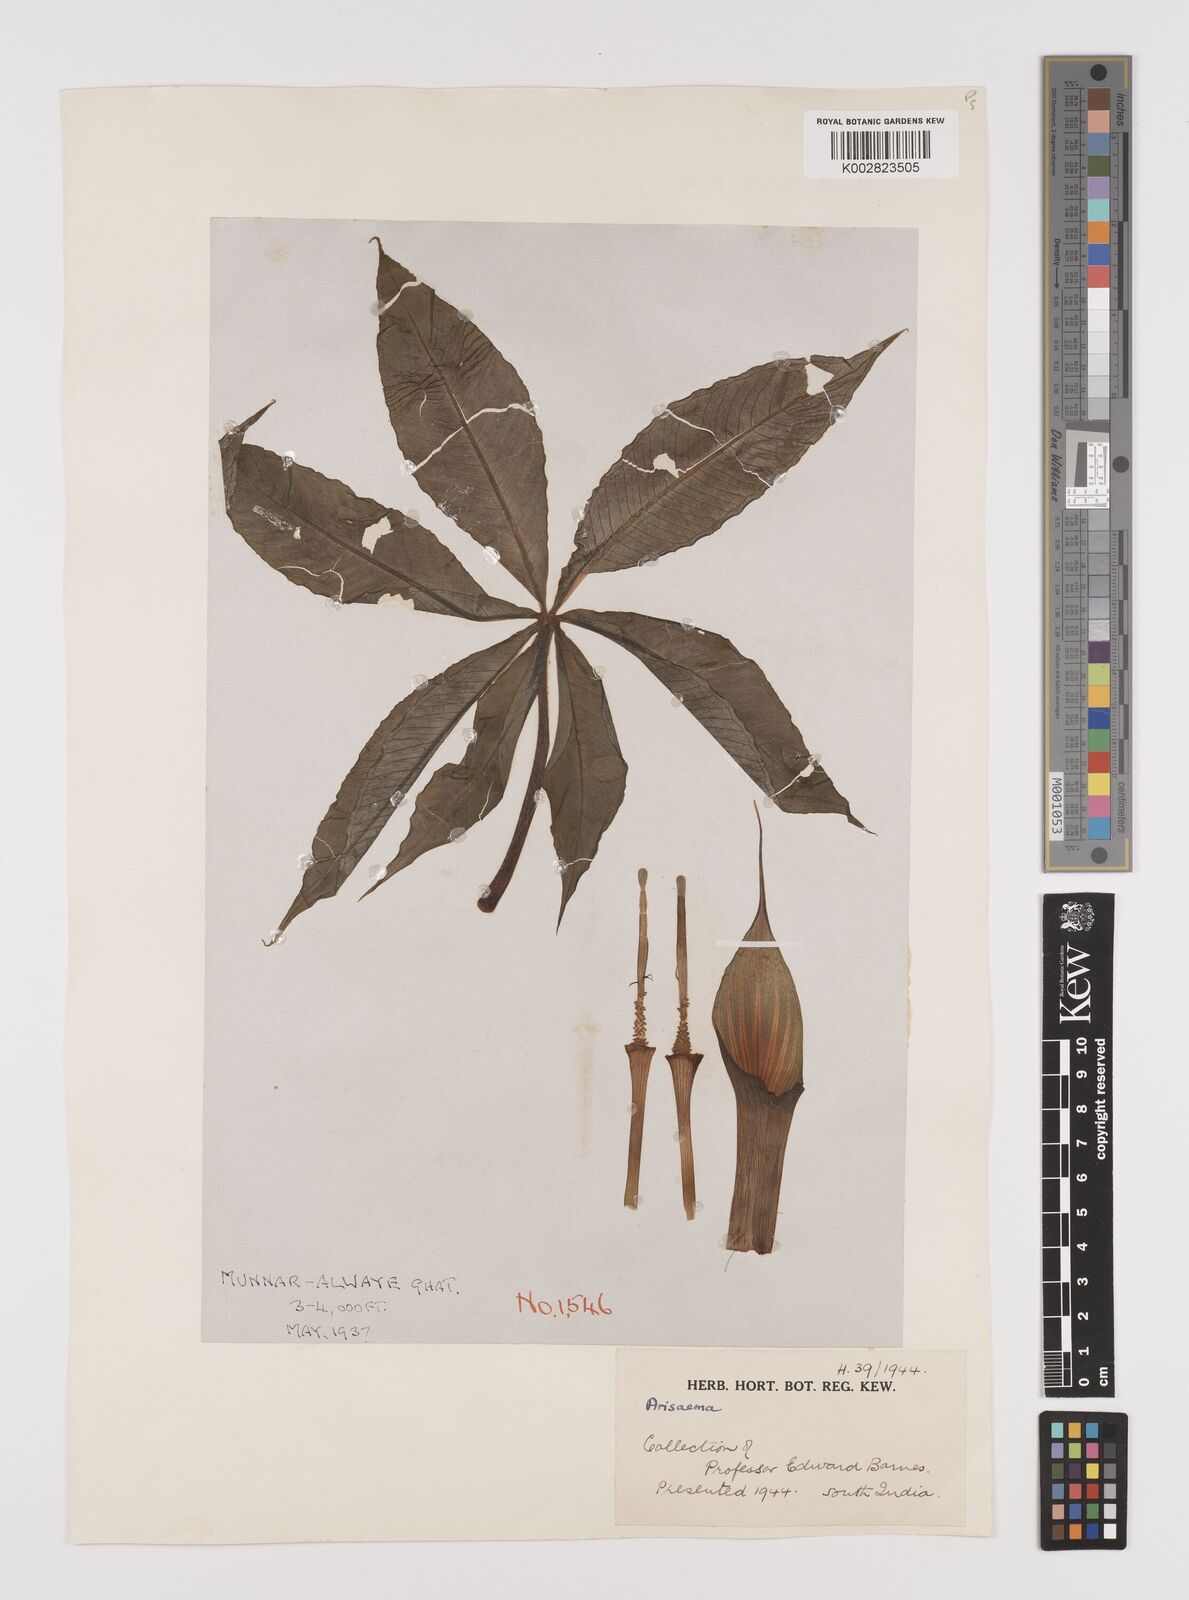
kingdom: Plantae
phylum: Tracheophyta
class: Liliopsida
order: Alismatales
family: Araceae
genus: Arisaema
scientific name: Arisaema
